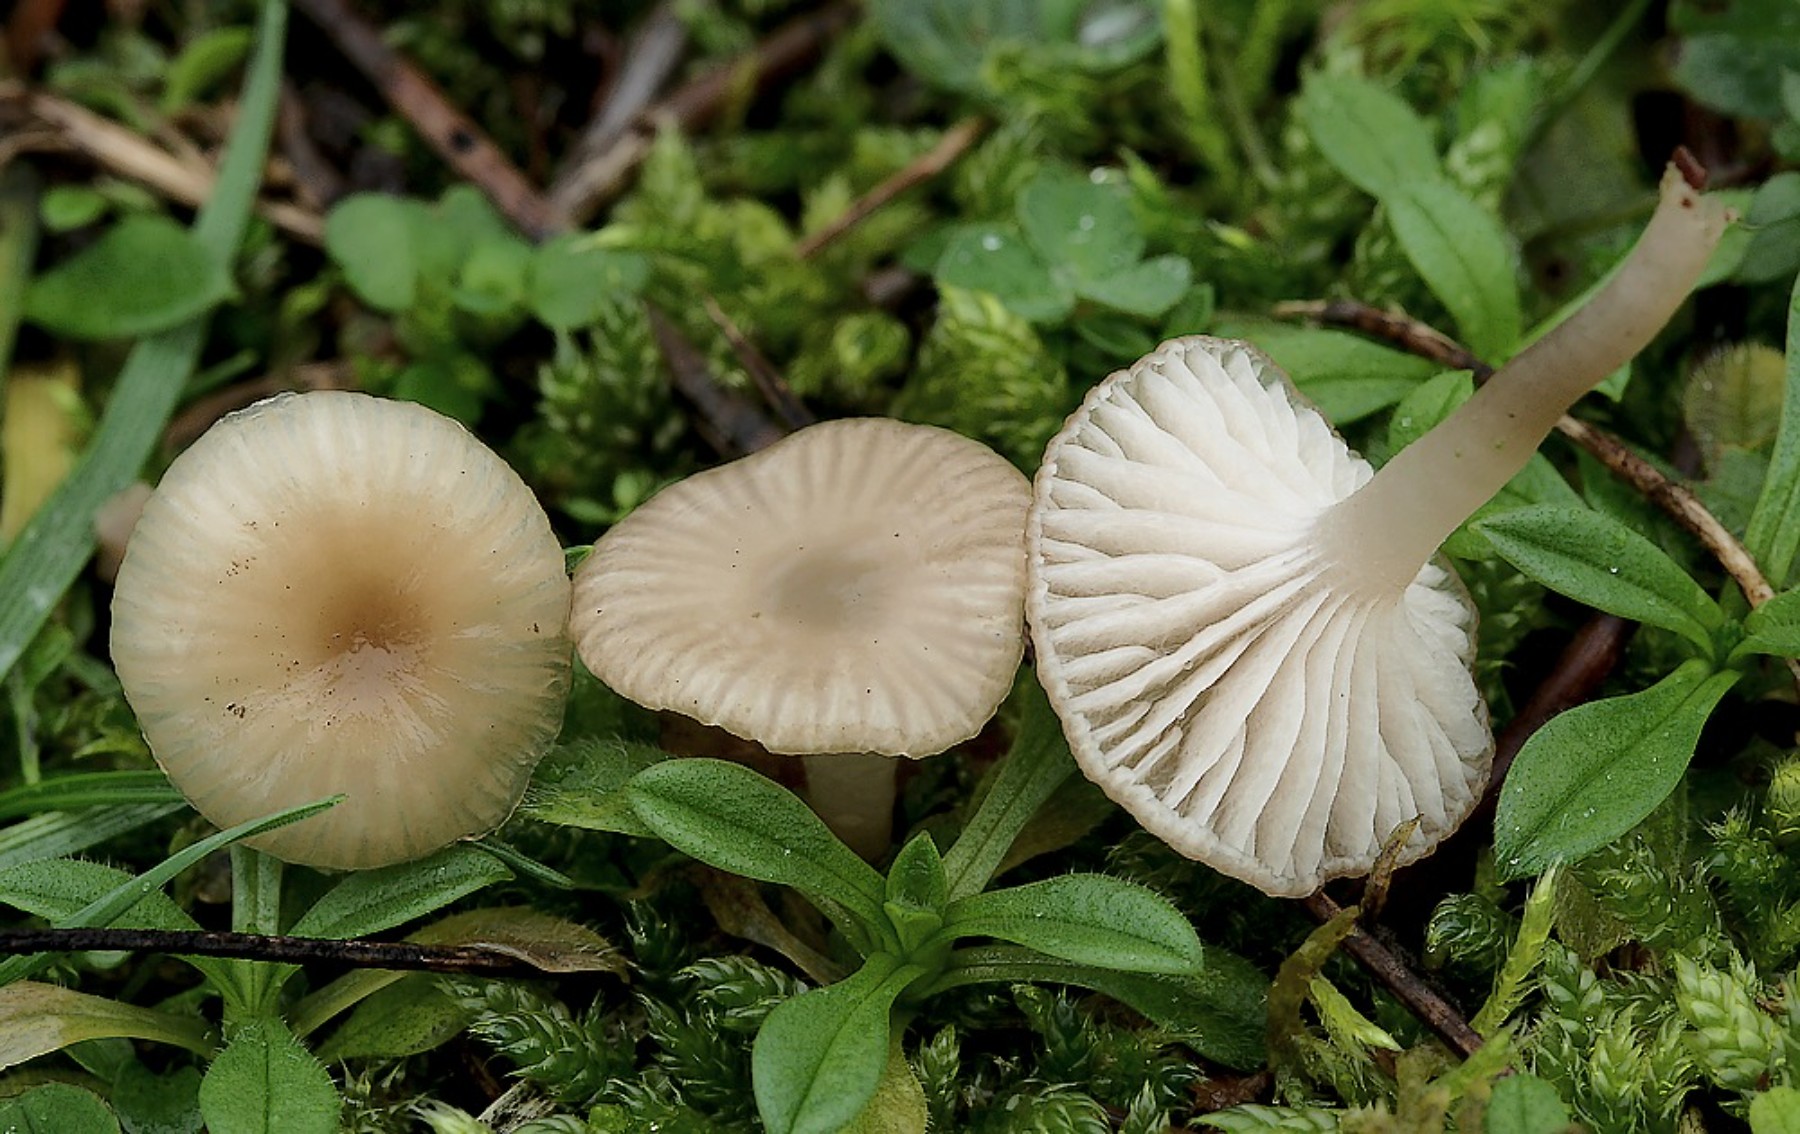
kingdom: Fungi
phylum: Basidiomycota
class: Agaricomycetes
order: Agaricales
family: Tricholomataceae
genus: Gamundia
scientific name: Gamundia xerophila
